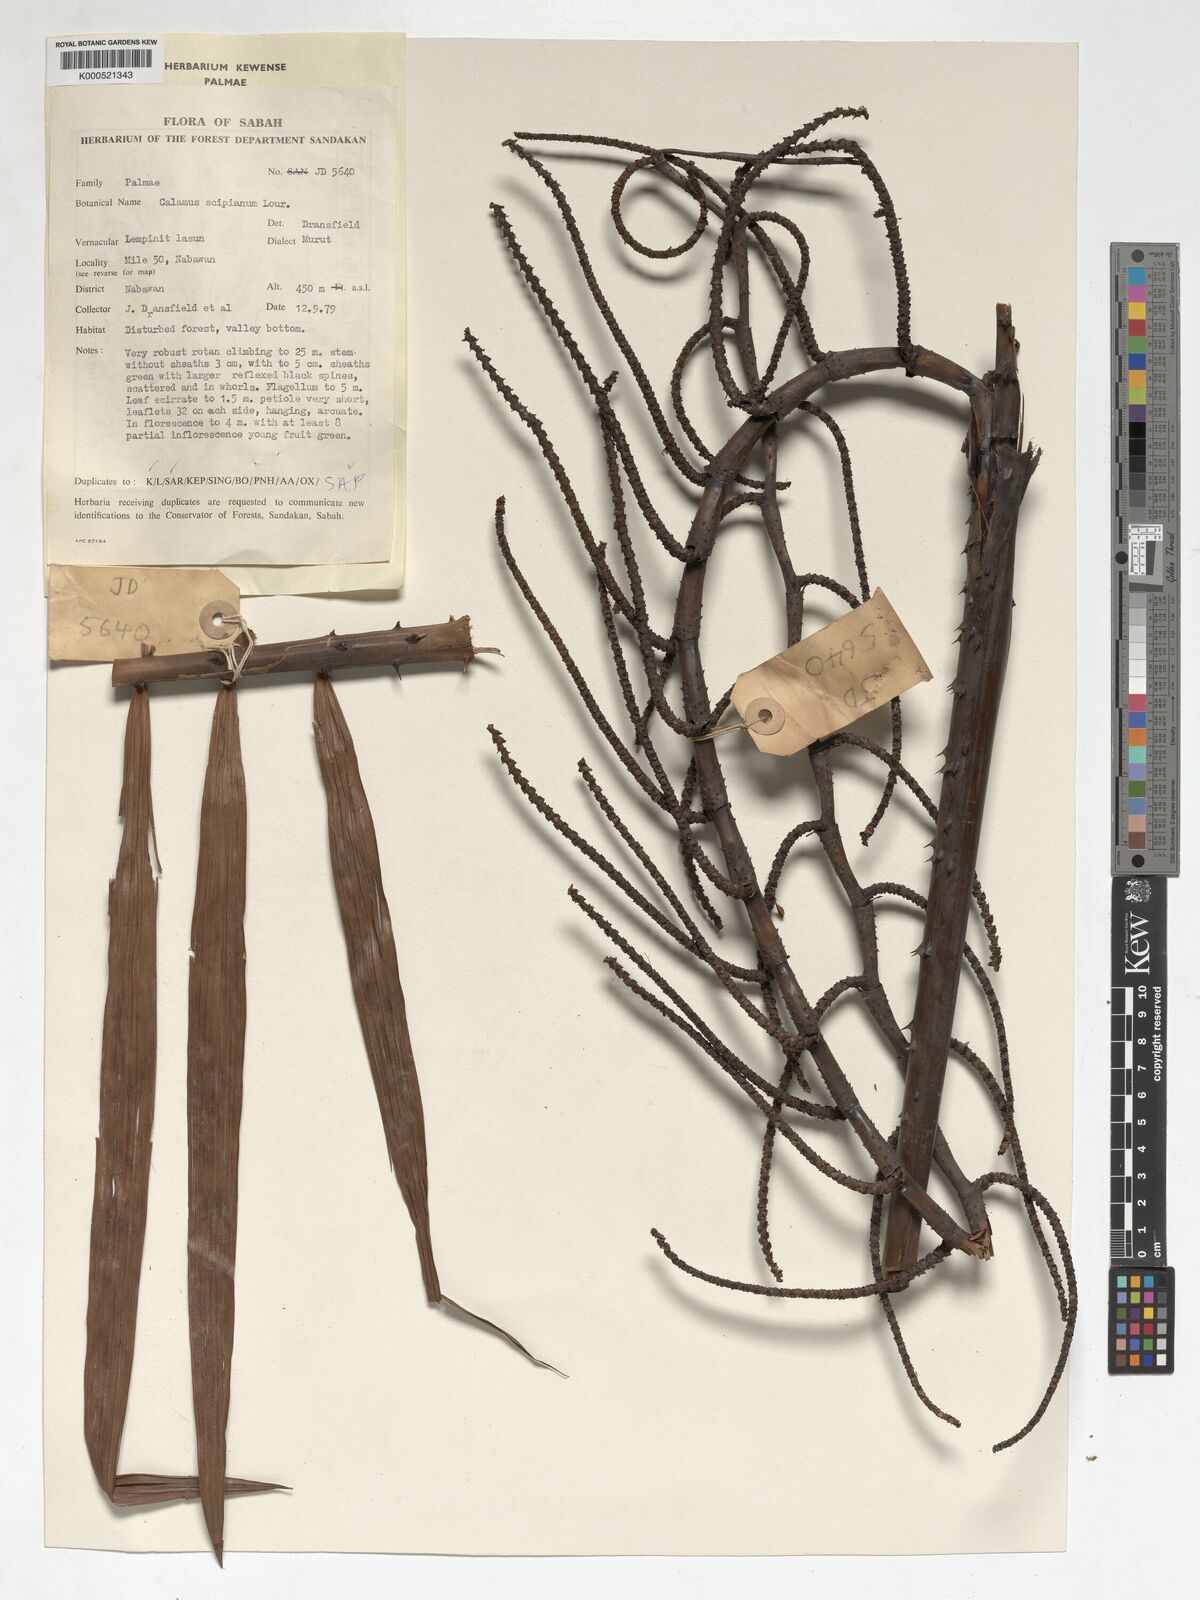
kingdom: Plantae
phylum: Tracheophyta
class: Liliopsida
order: Arecales
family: Arecaceae
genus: Calamus
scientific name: Calamus scipionum
